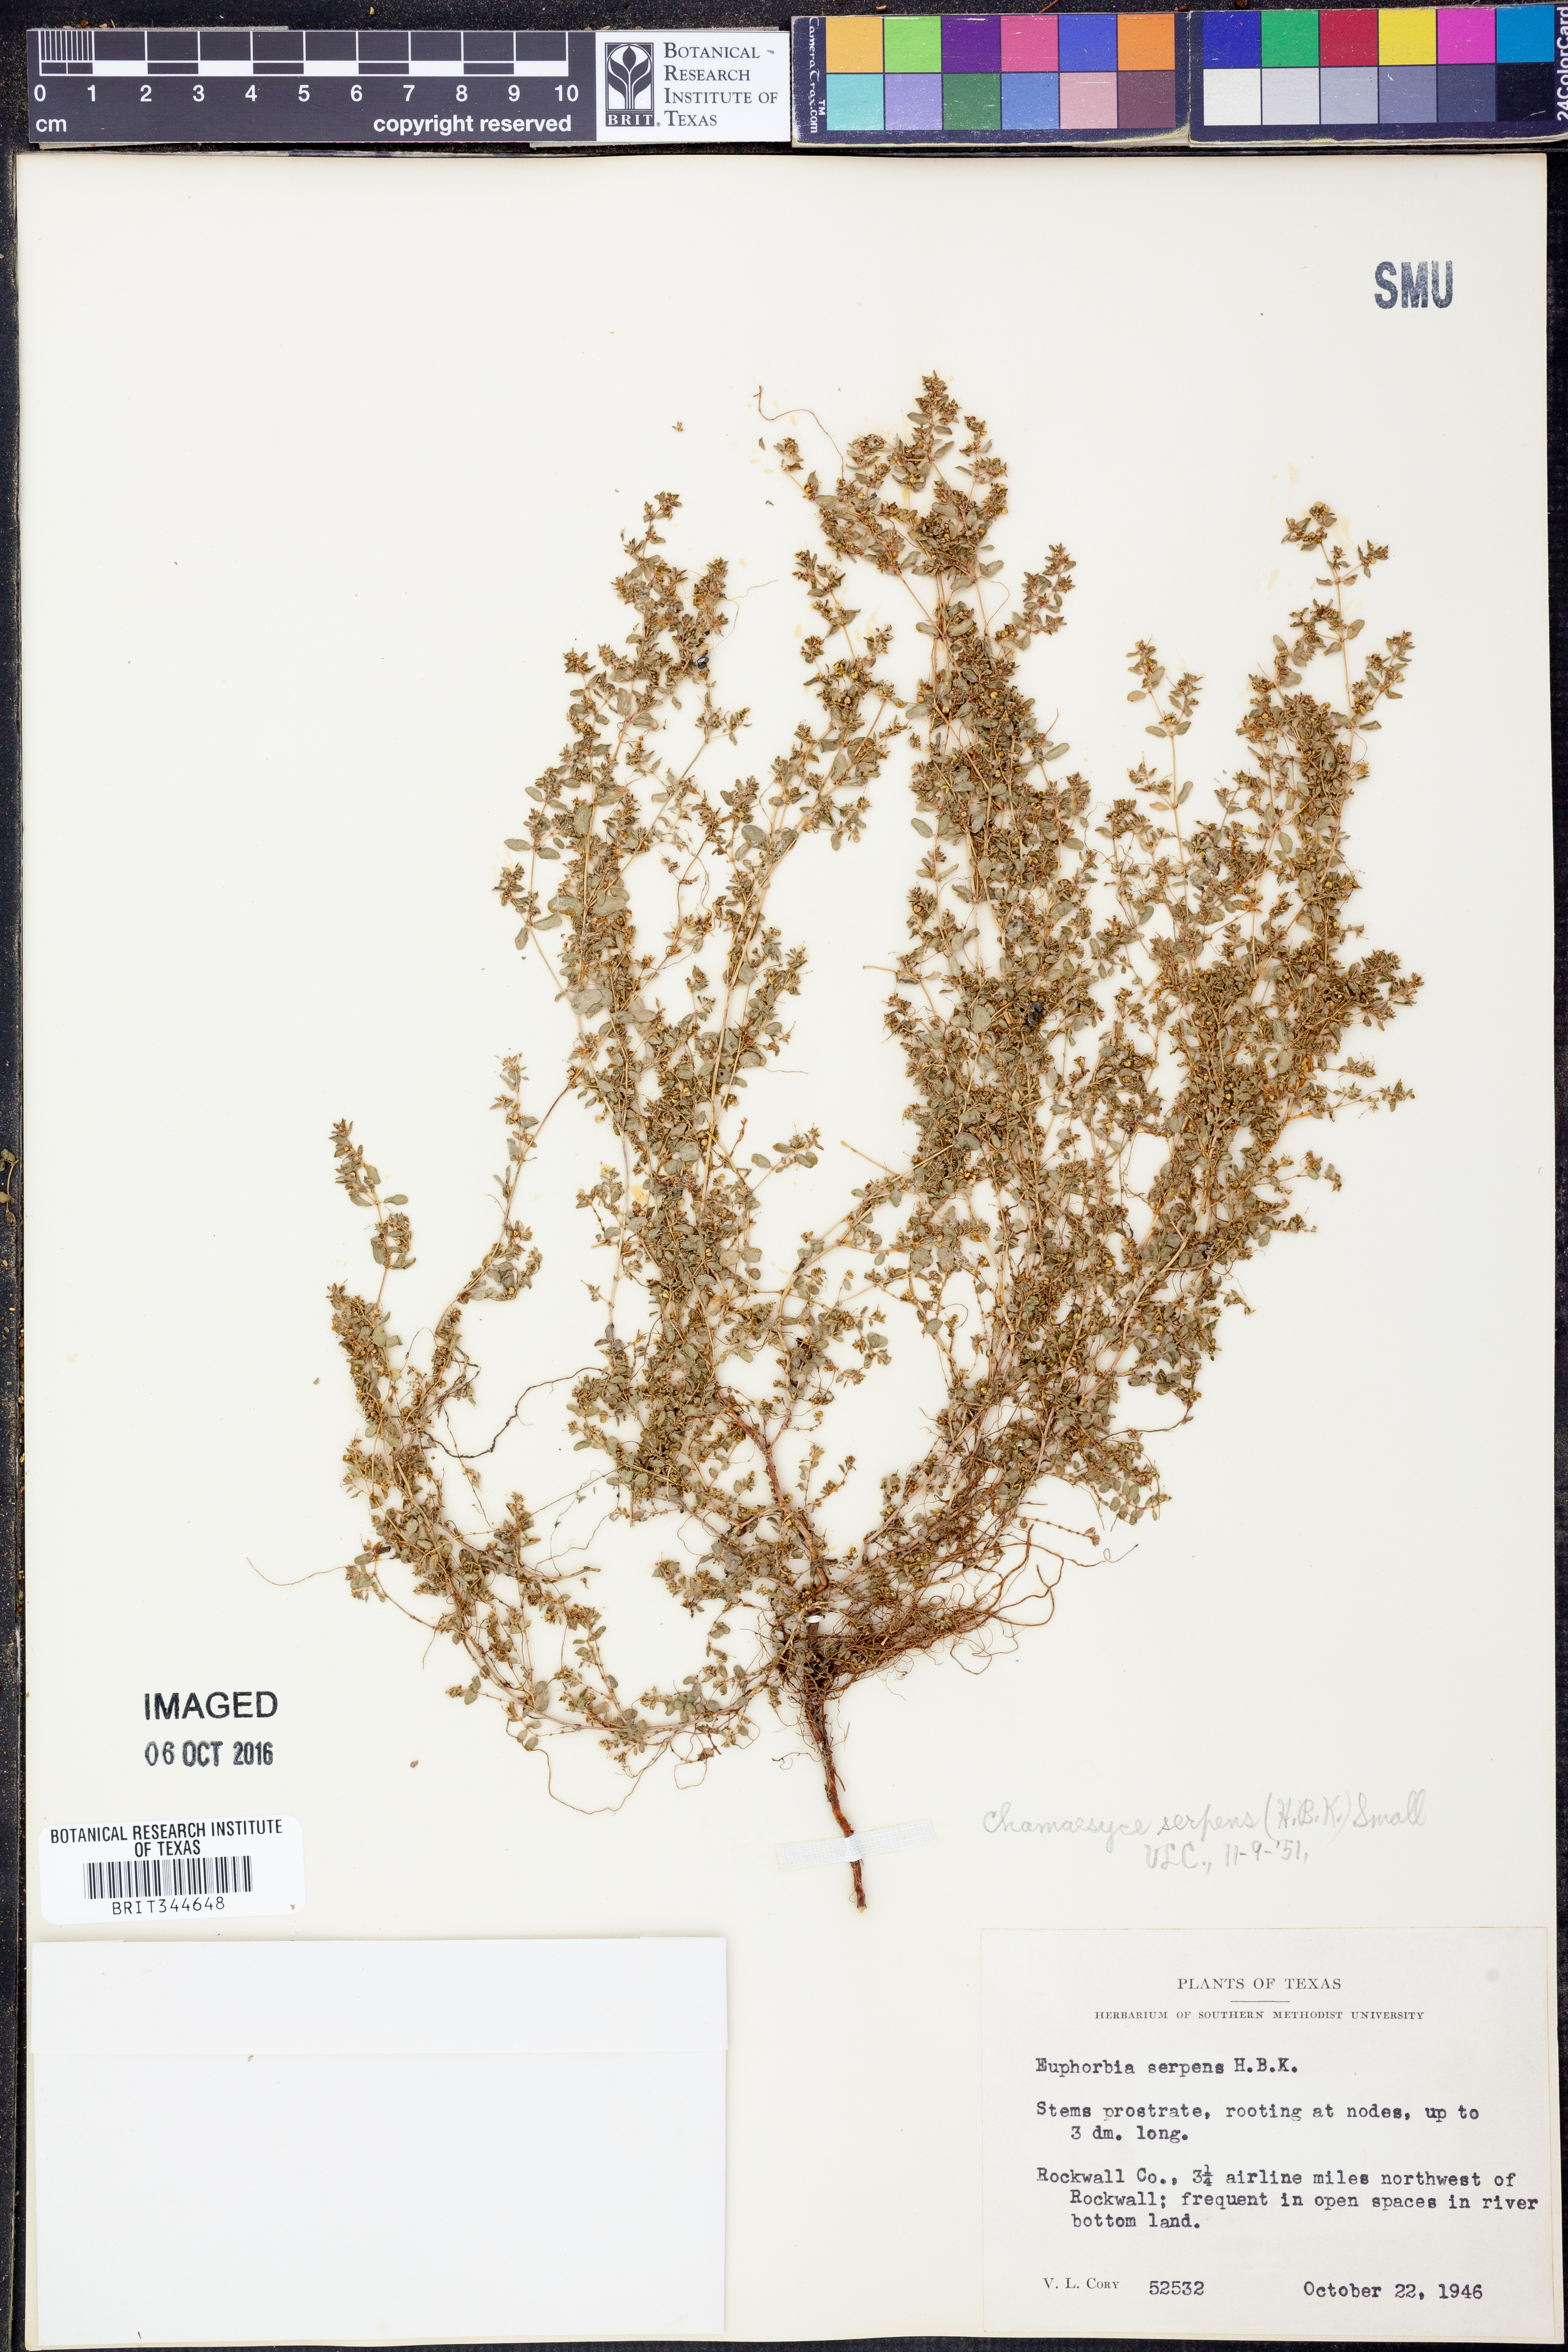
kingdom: Plantae
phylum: Tracheophyta
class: Magnoliopsida
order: Malpighiales
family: Euphorbiaceae
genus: Euphorbia
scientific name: Euphorbia serpens
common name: Matted sandmat
